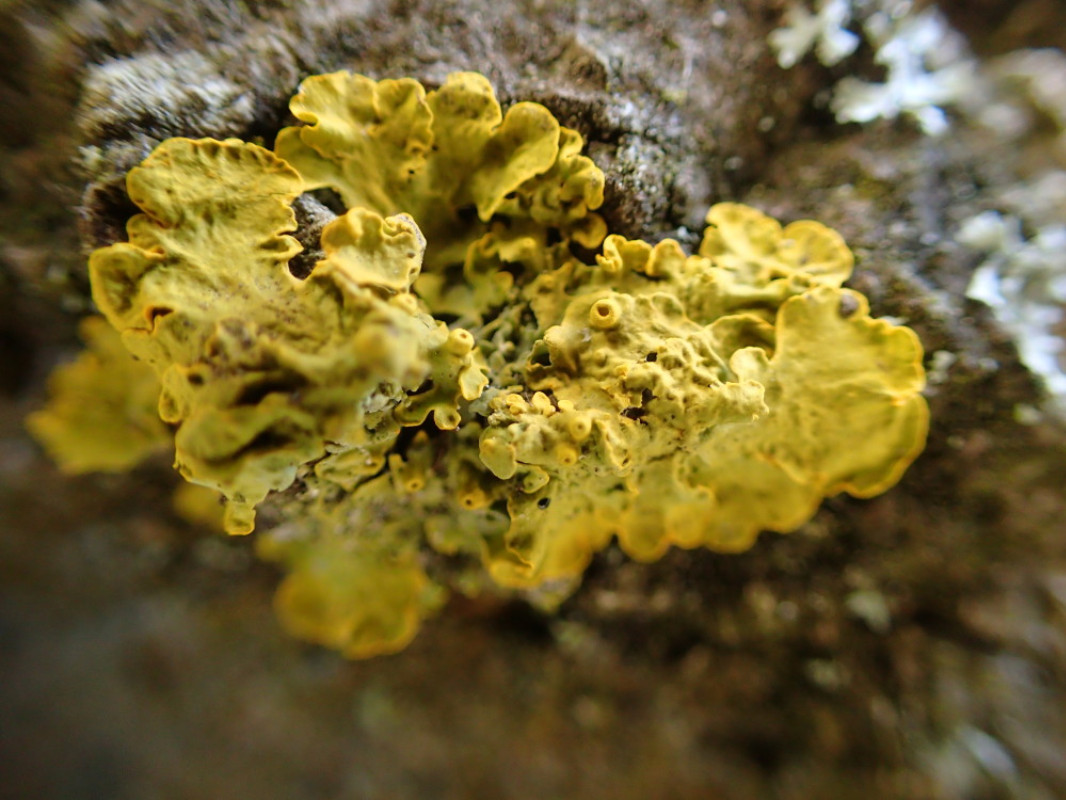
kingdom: Fungi
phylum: Ascomycota
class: Lecanoromycetes
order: Teloschistales
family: Teloschistaceae
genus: Xanthoria
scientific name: Xanthoria parietina
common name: almindelig væggelav
